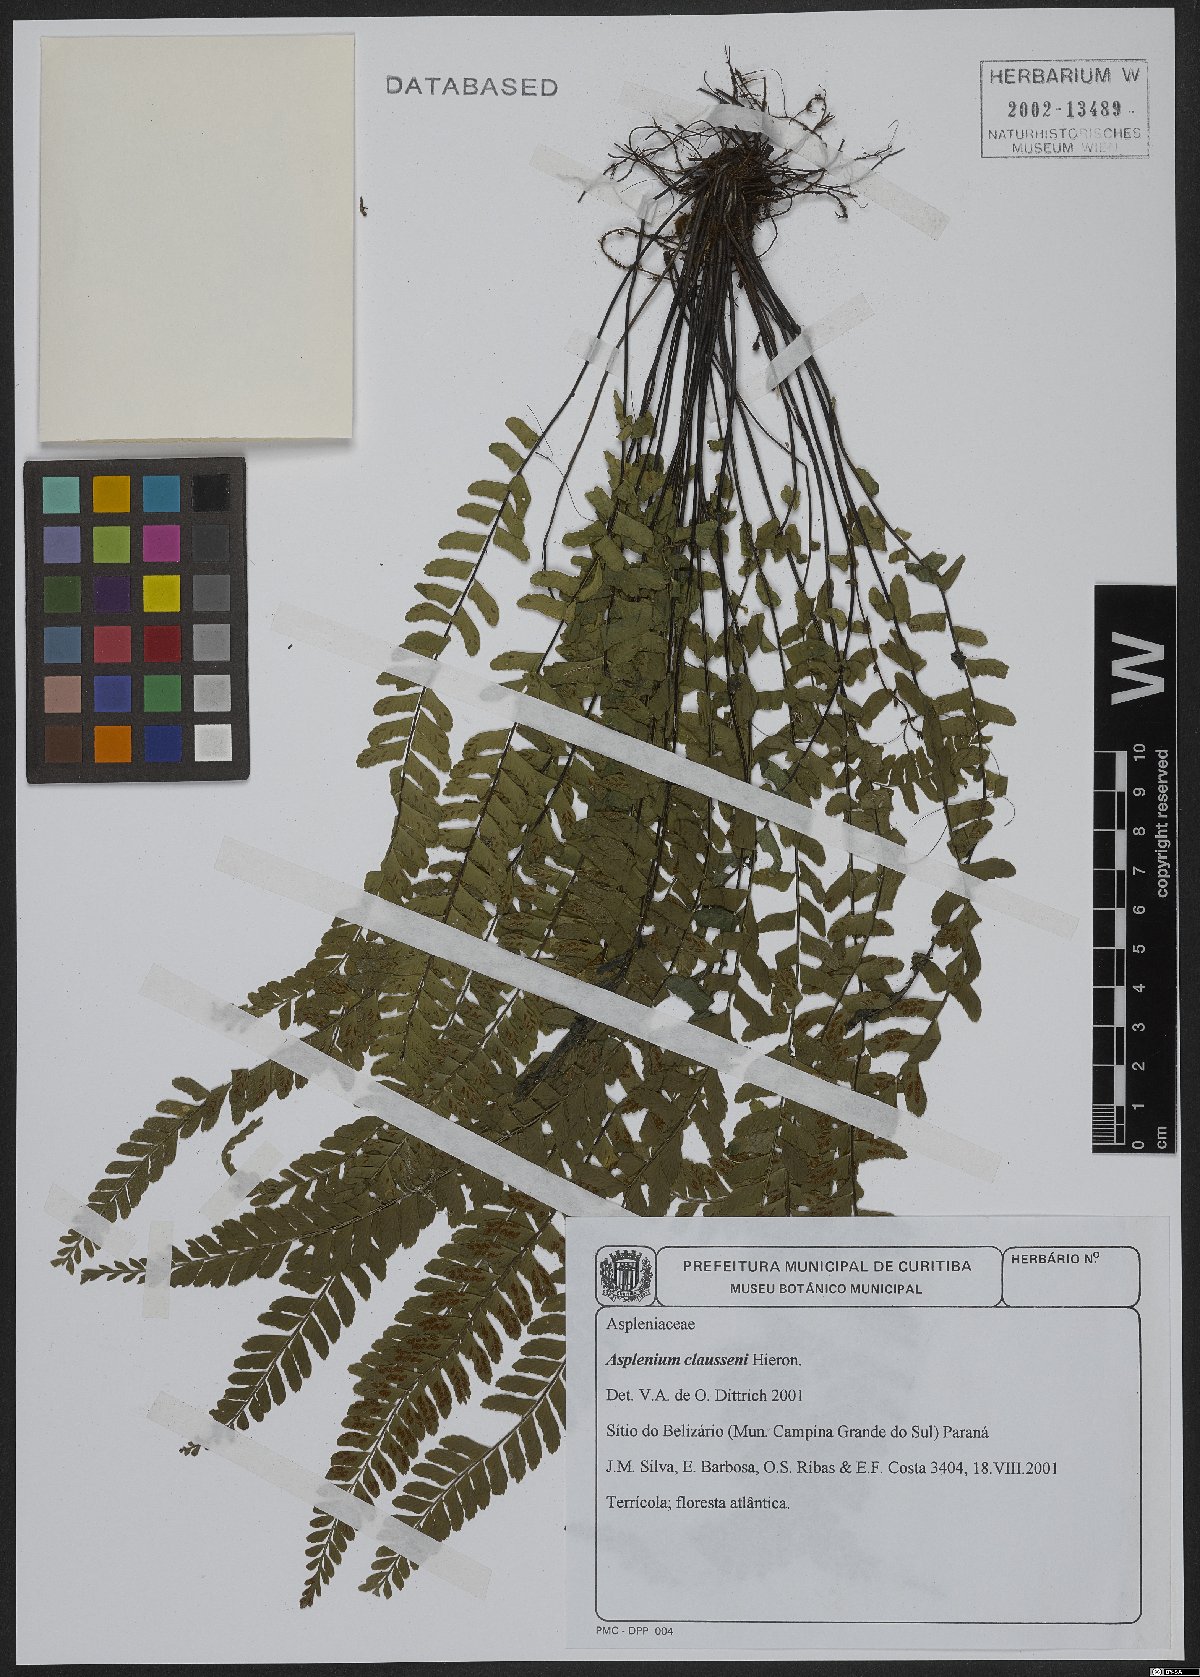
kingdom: Plantae
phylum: Tracheophyta
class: Polypodiopsida
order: Polypodiales
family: Aspleniaceae
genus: Asplenium
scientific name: Asplenium claussenii
